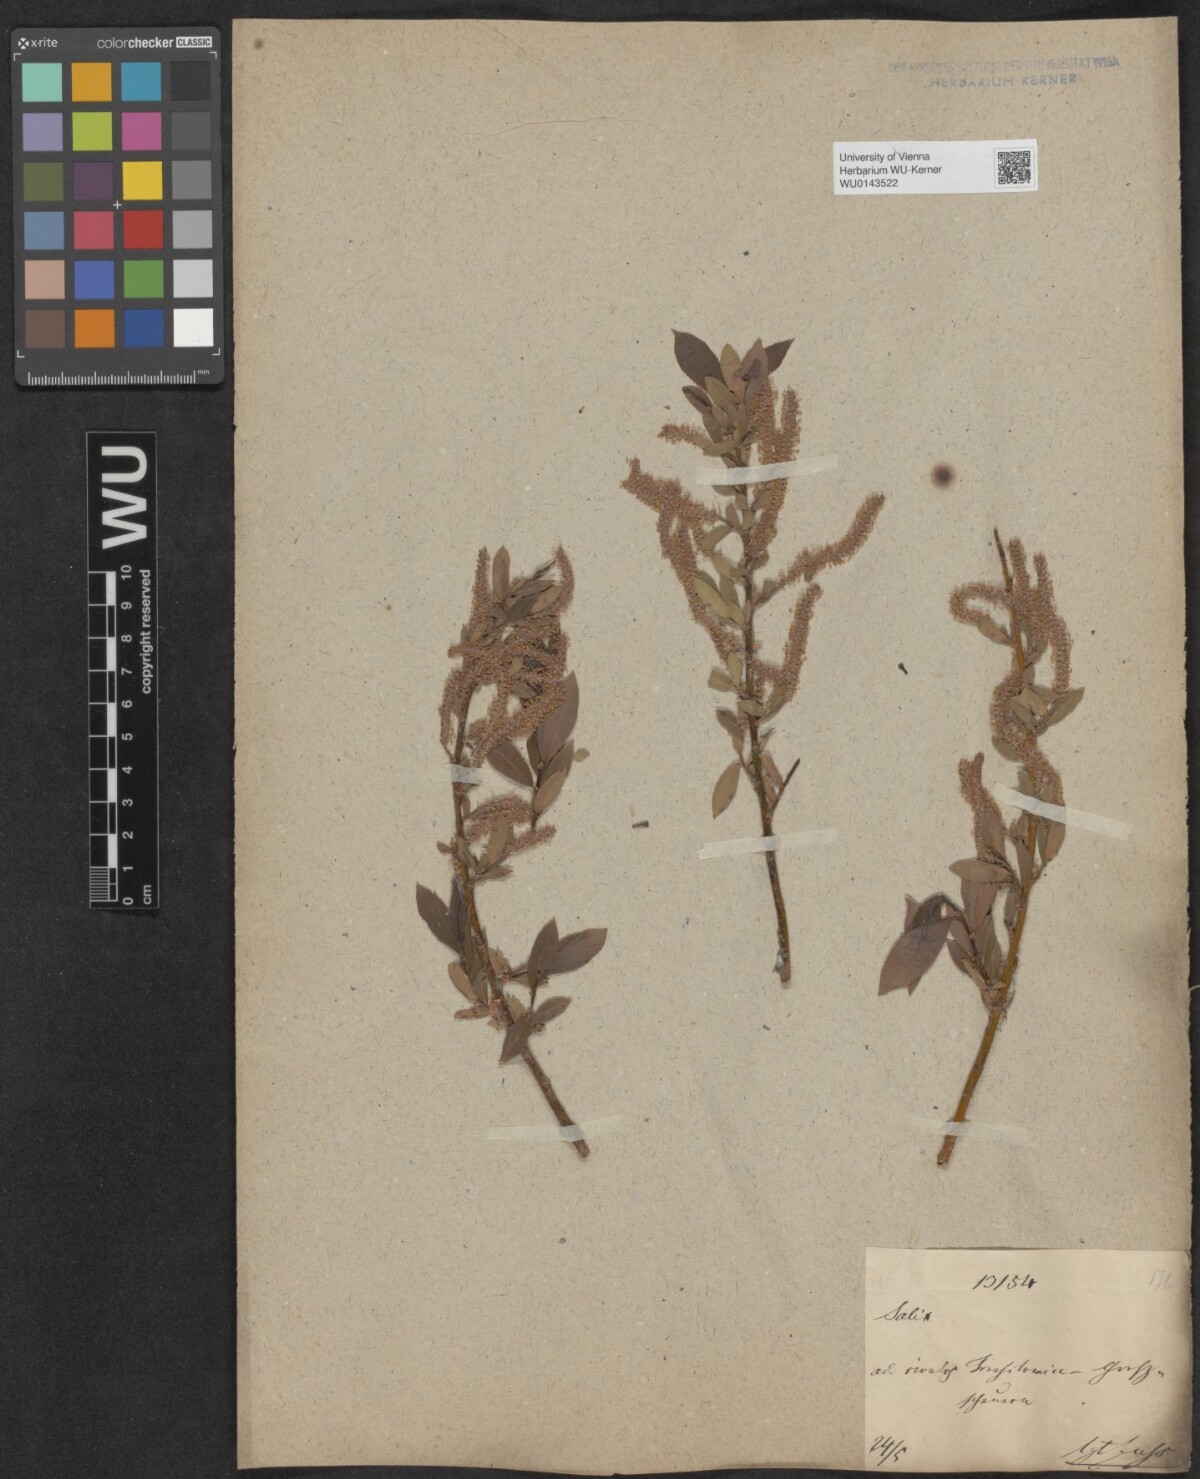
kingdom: Plantae
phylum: Tracheophyta
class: Magnoliopsida
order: Malpighiales
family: Salicaceae
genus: Salix
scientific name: Salix triandra
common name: Almond willow
